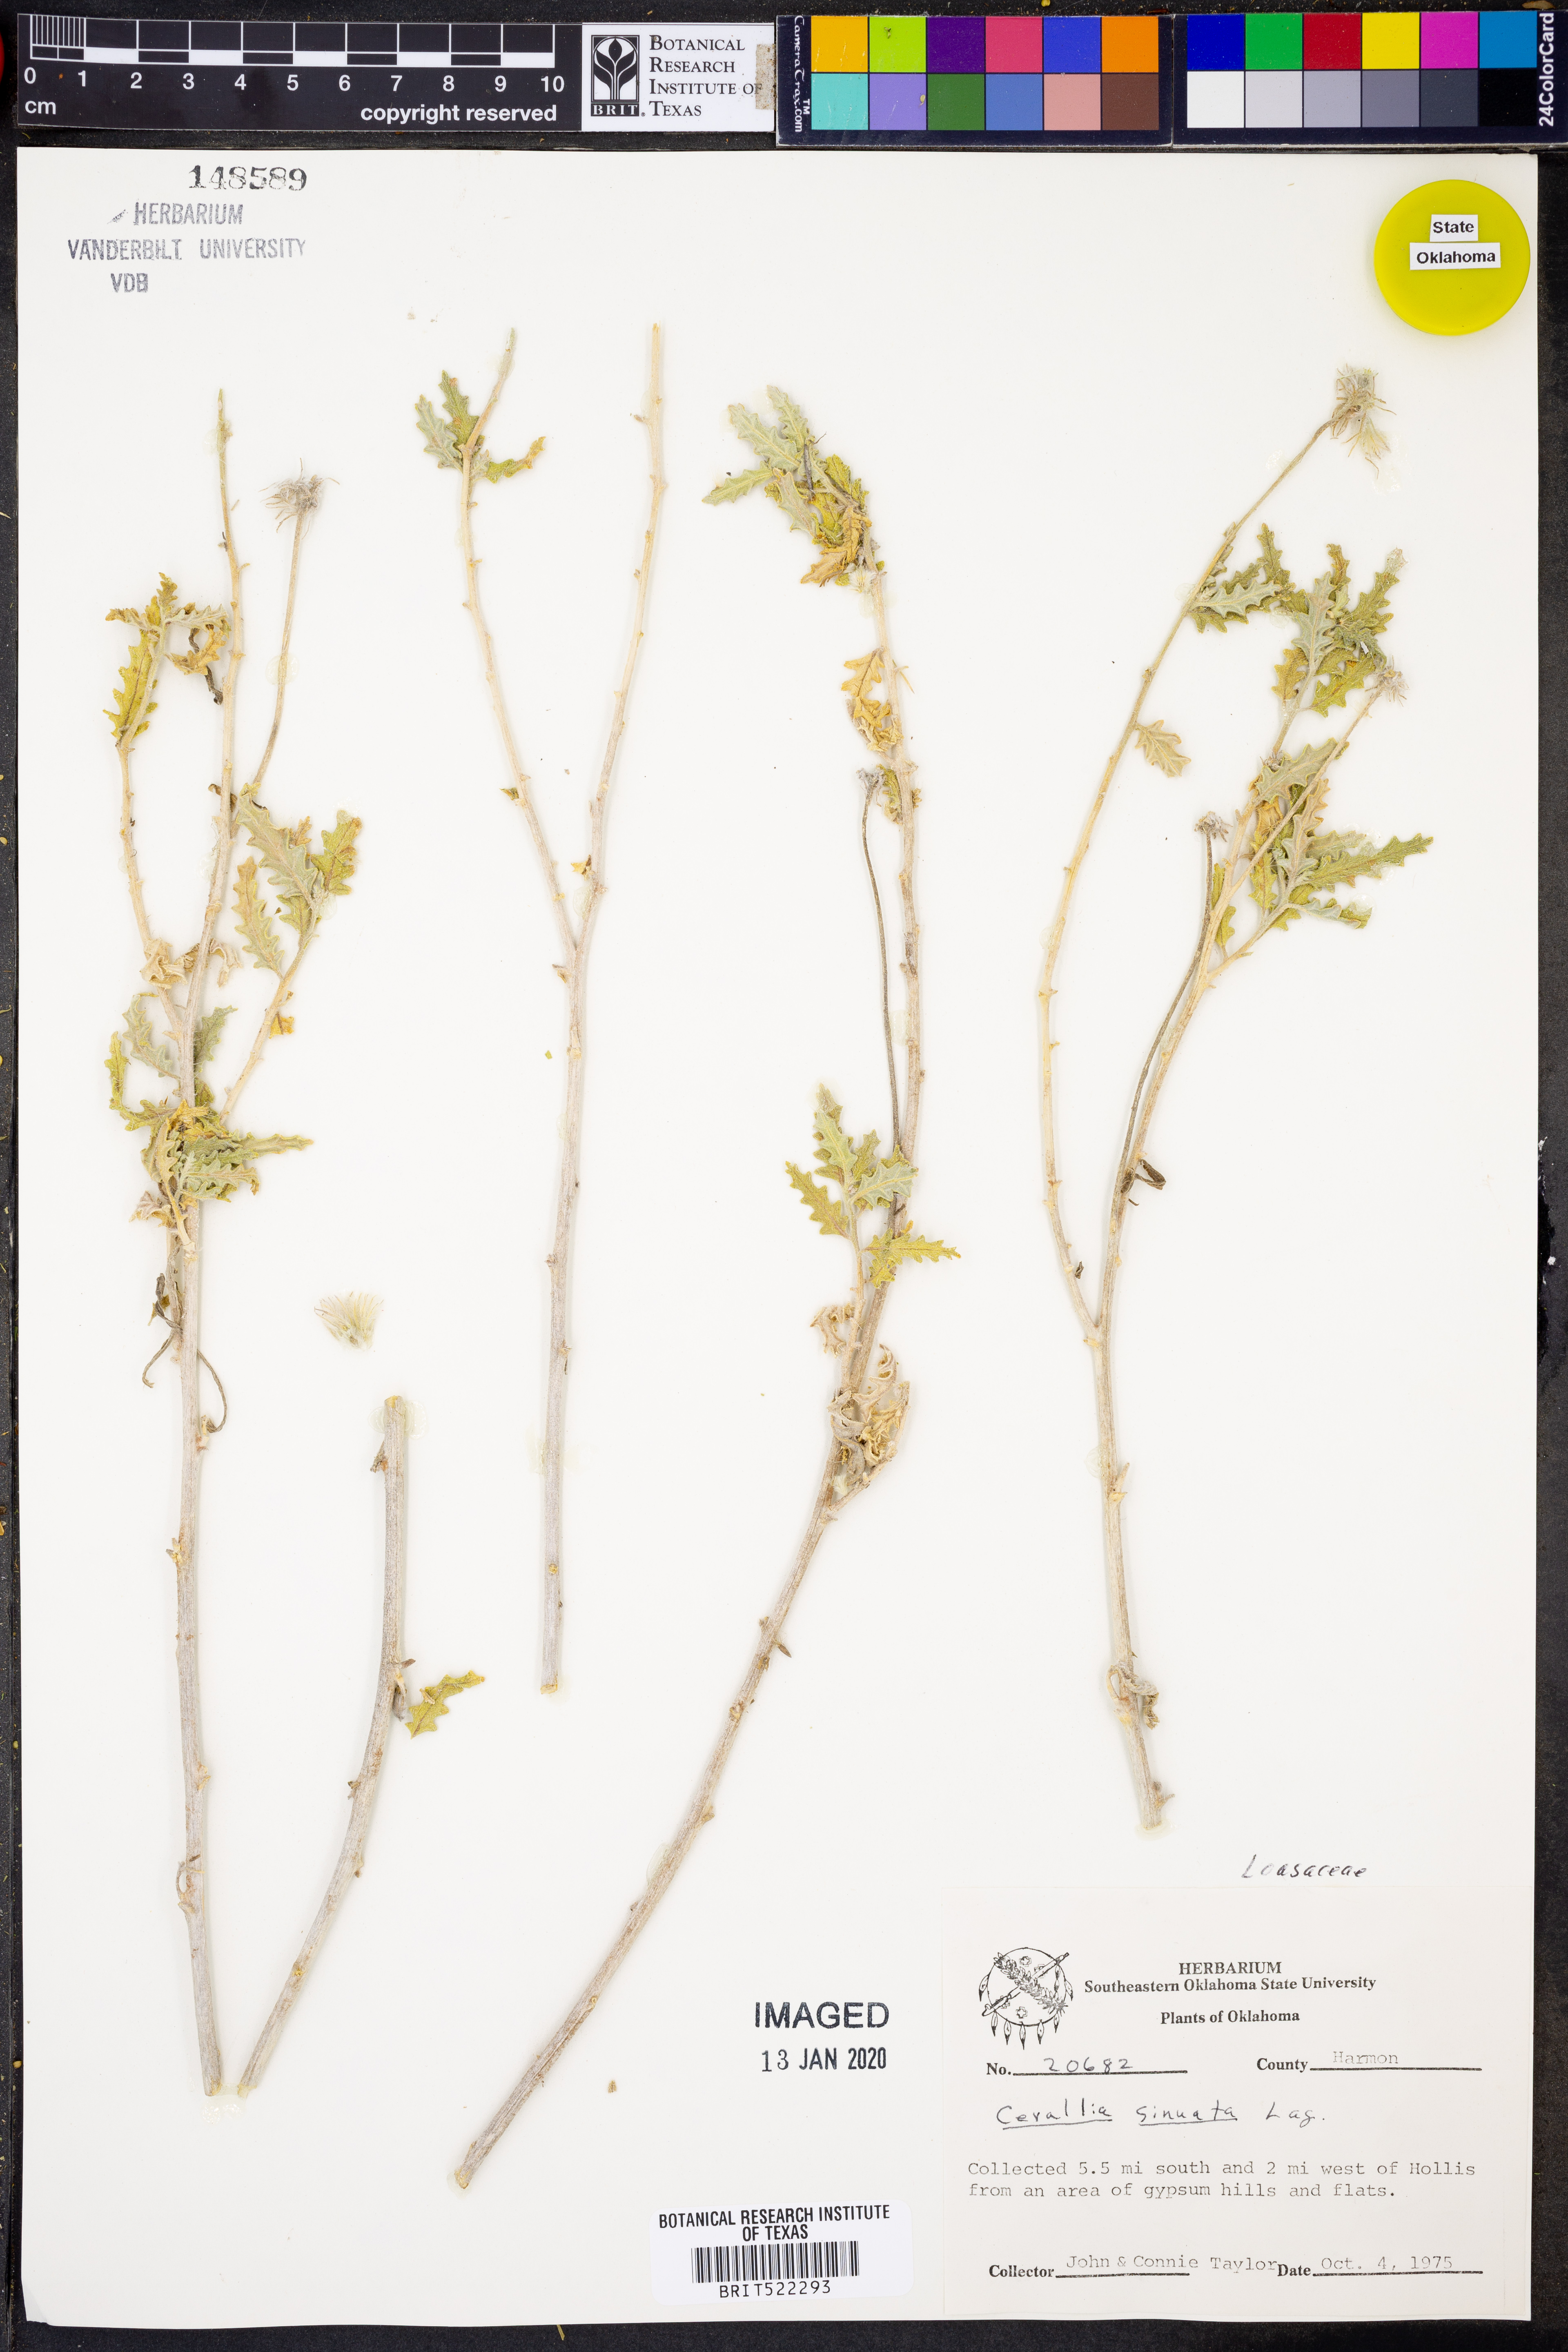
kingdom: Plantae
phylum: Tracheophyta
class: Magnoliopsida
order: Cornales
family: Loasaceae
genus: Cevallia
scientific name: Cevallia sinuata
